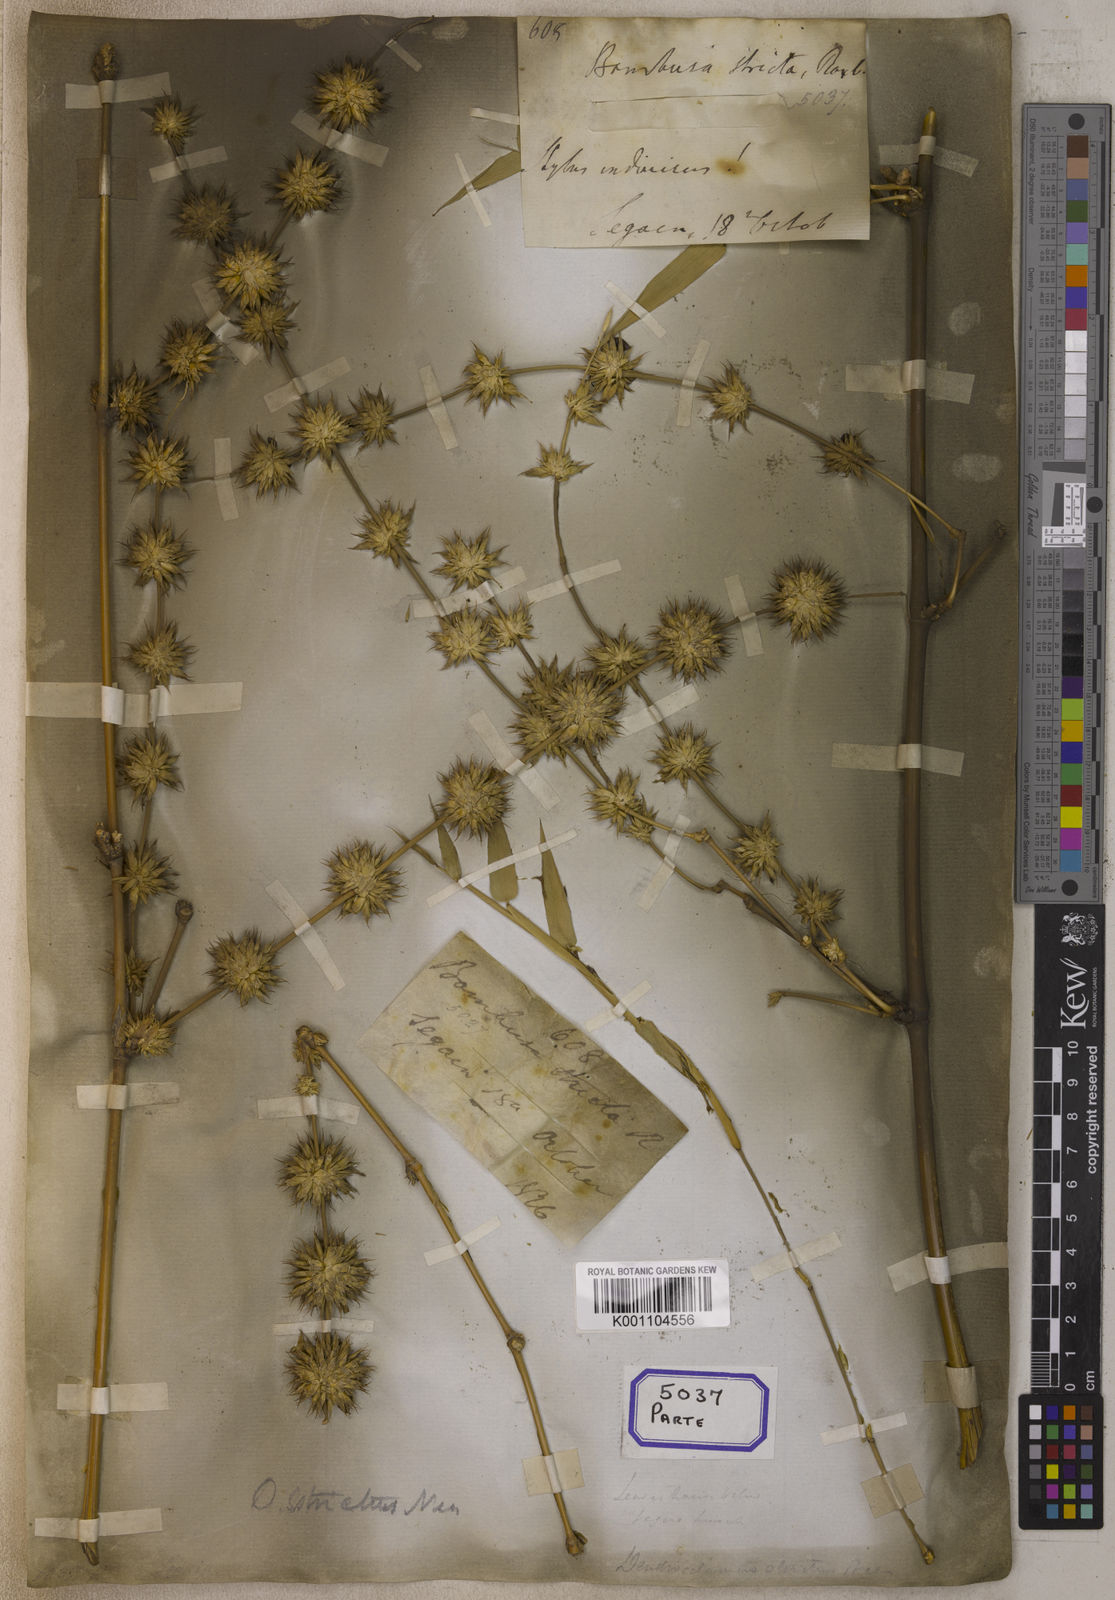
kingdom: Plantae
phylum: Tracheophyta
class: Liliopsida
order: Poales
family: Poaceae
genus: Bambusa
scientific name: Bambusa
